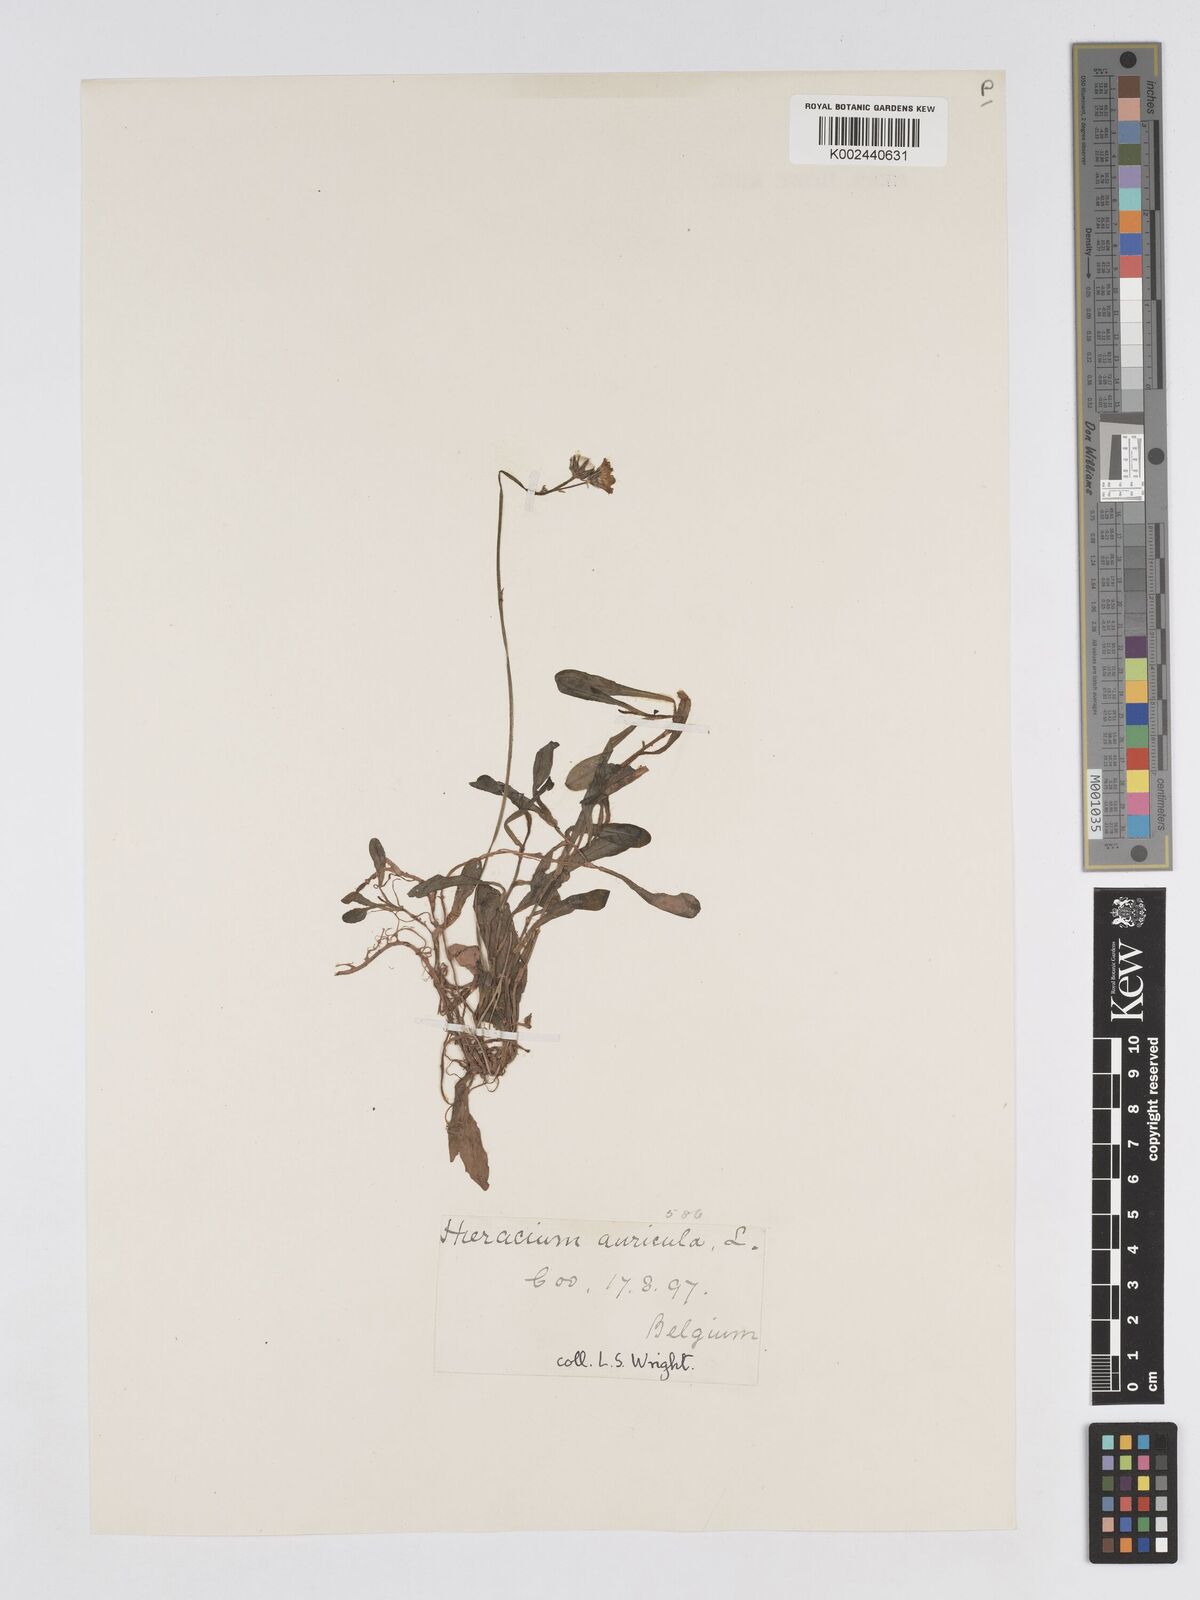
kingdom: Plantae
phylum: Tracheophyta
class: Magnoliopsida
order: Asterales
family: Asteraceae
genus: Pilosella
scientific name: Pilosella floribunda
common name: Glaucous hawkweed
